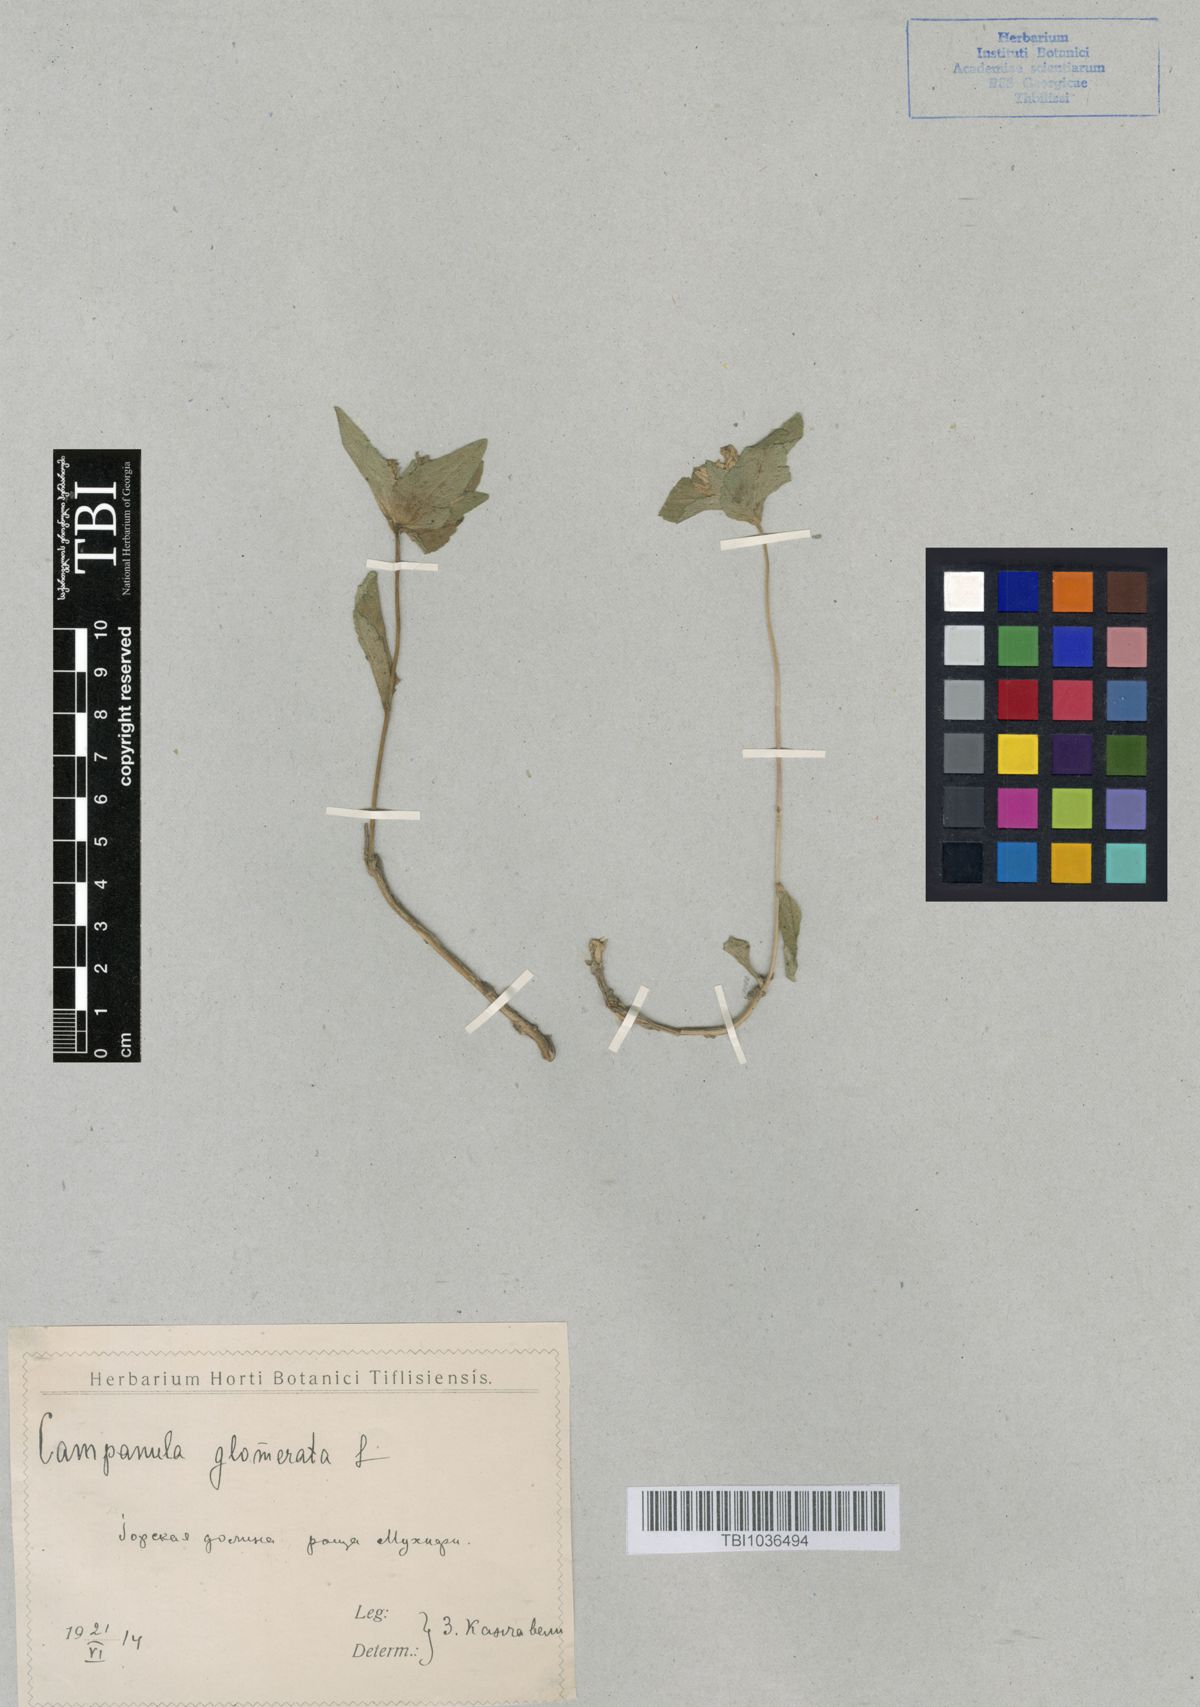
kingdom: Plantae
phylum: Tracheophyta
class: Magnoliopsida
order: Asterales
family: Campanulaceae
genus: Campanula
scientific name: Campanula glomerata
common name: Clustered bellflower
